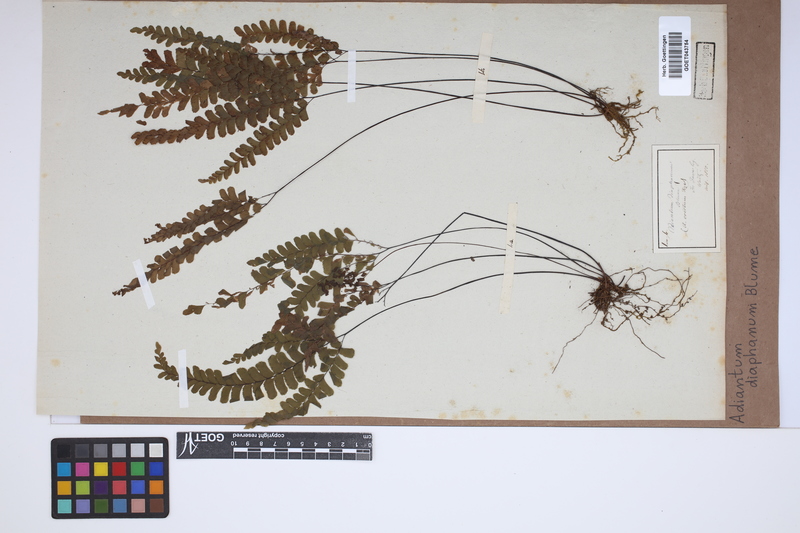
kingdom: Plantae
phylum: Tracheophyta
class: Polypodiopsida
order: Polypodiales
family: Pteridaceae
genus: Adiantum
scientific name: Adiantum diaphanum
